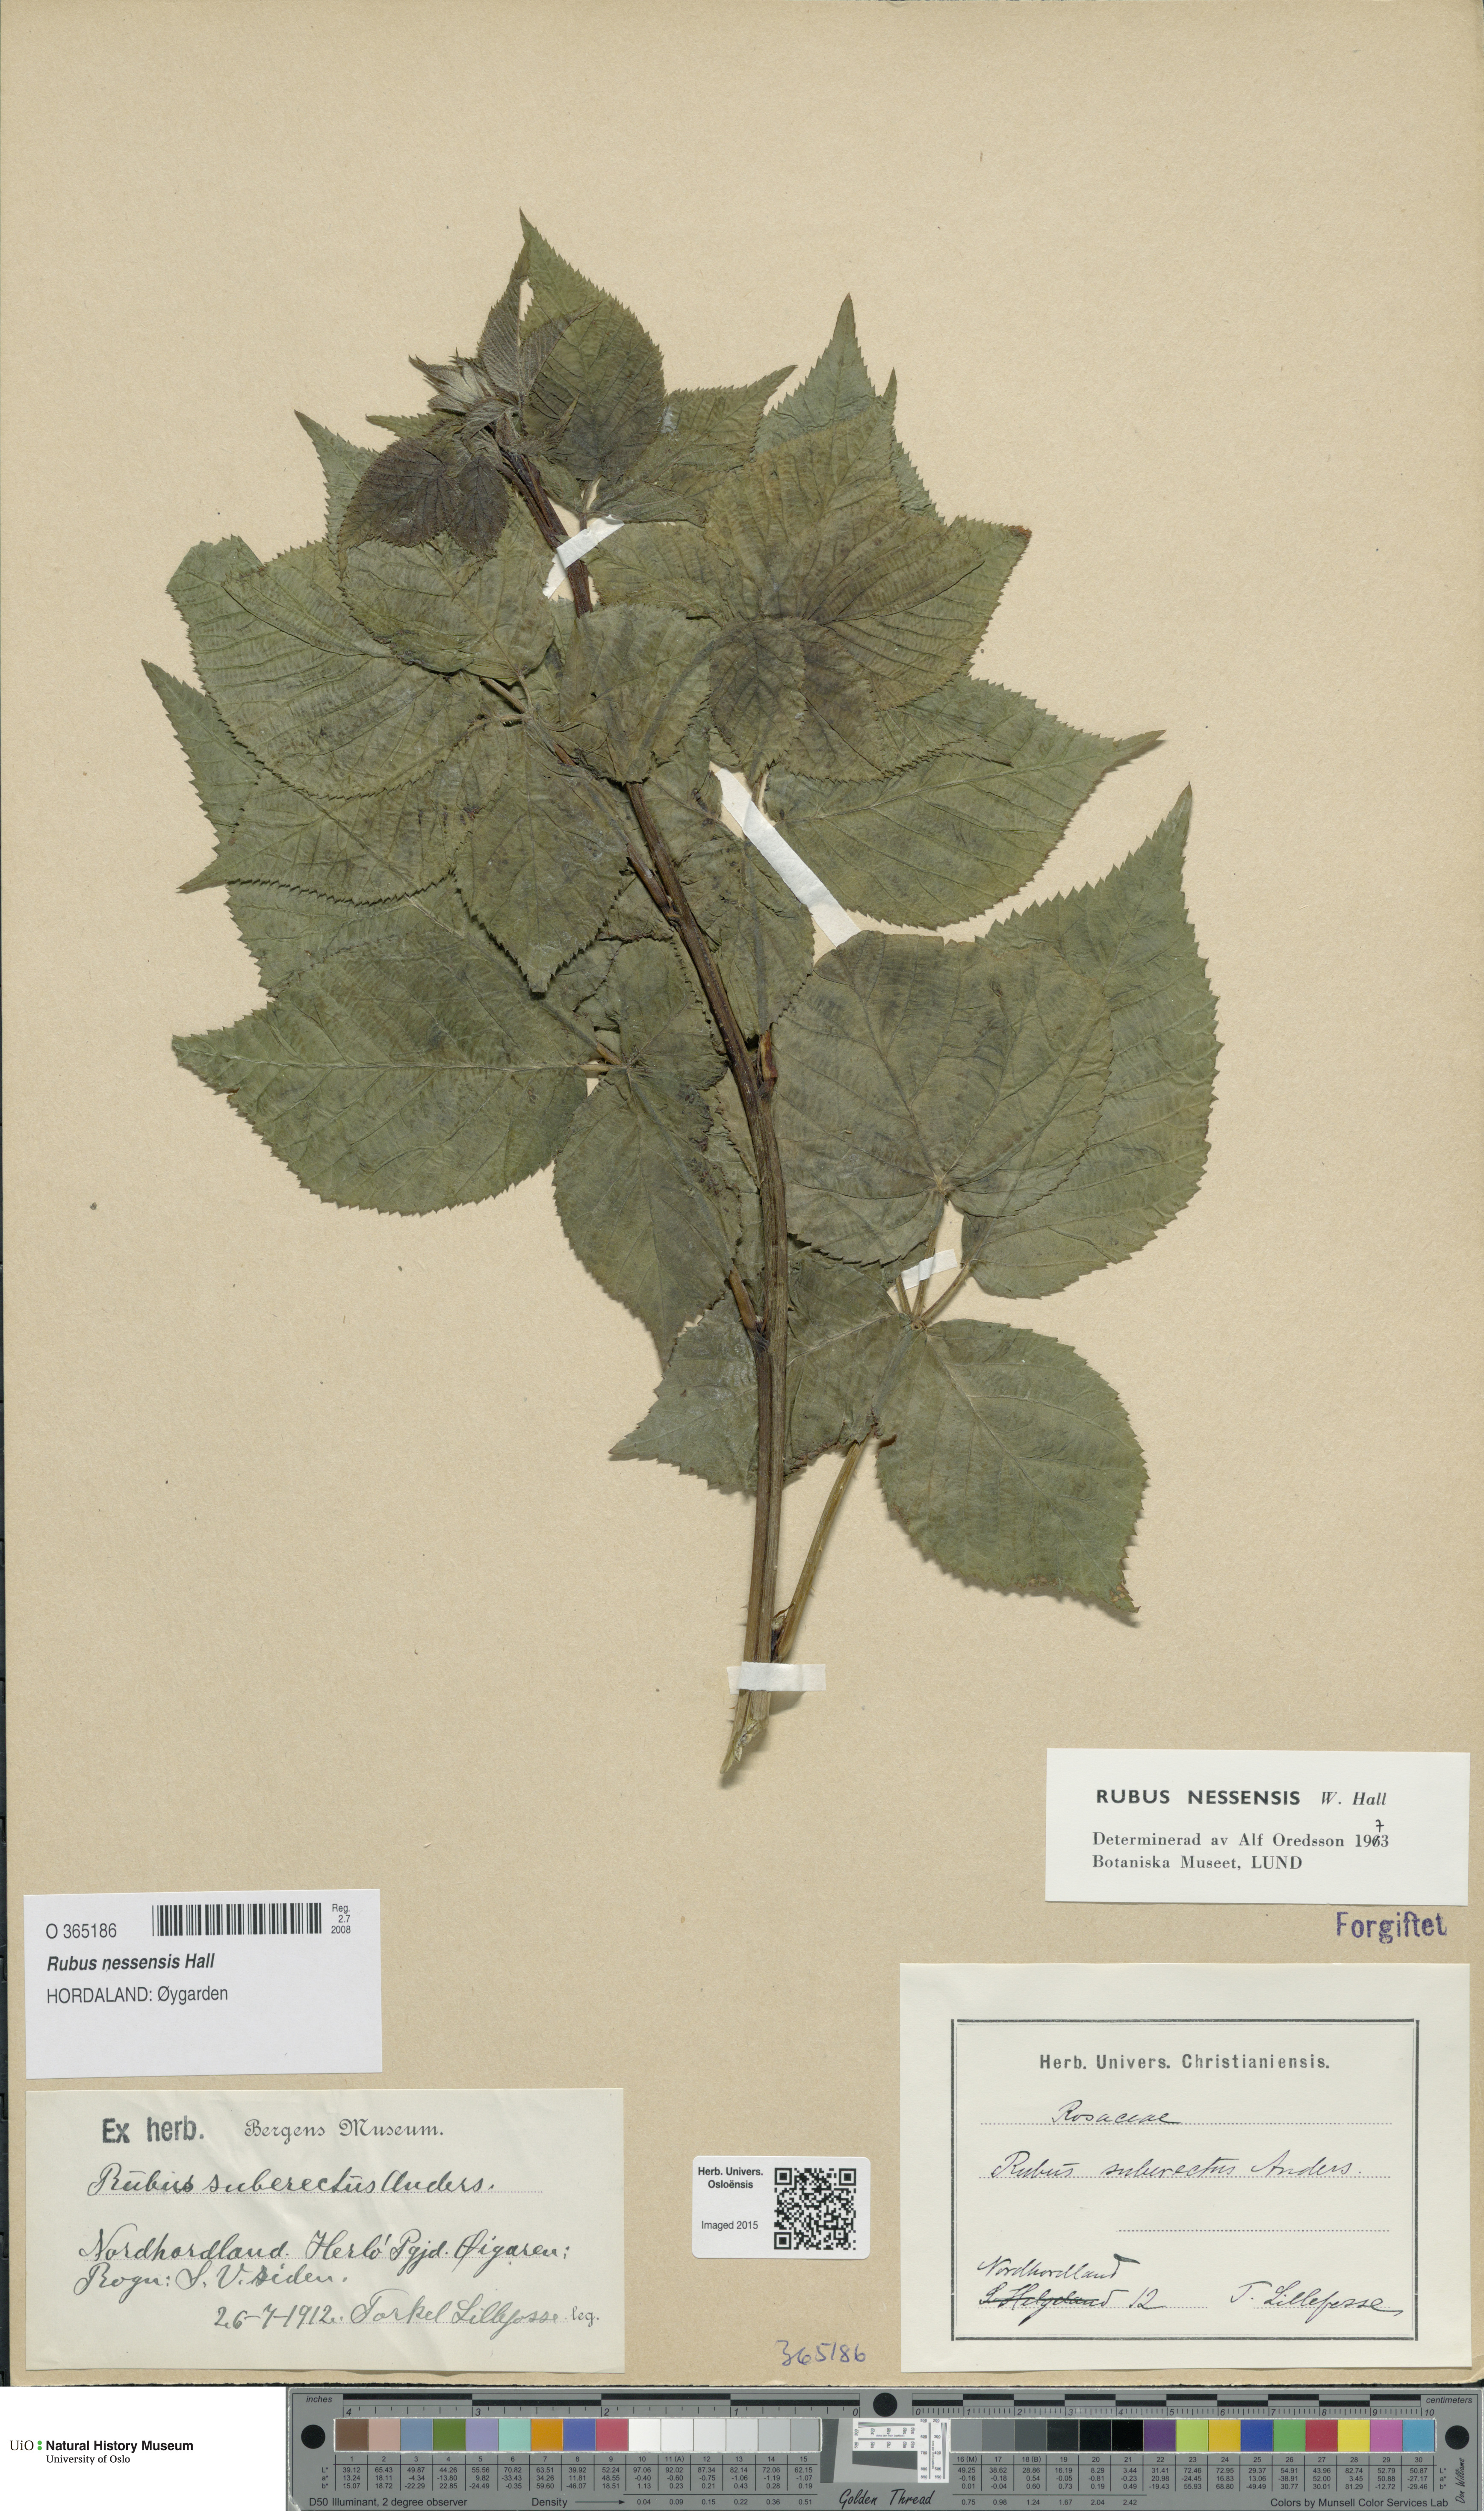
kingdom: Plantae
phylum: Tracheophyta
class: Magnoliopsida
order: Rosales
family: Rosaceae
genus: Rubus
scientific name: Rubus polonicus
